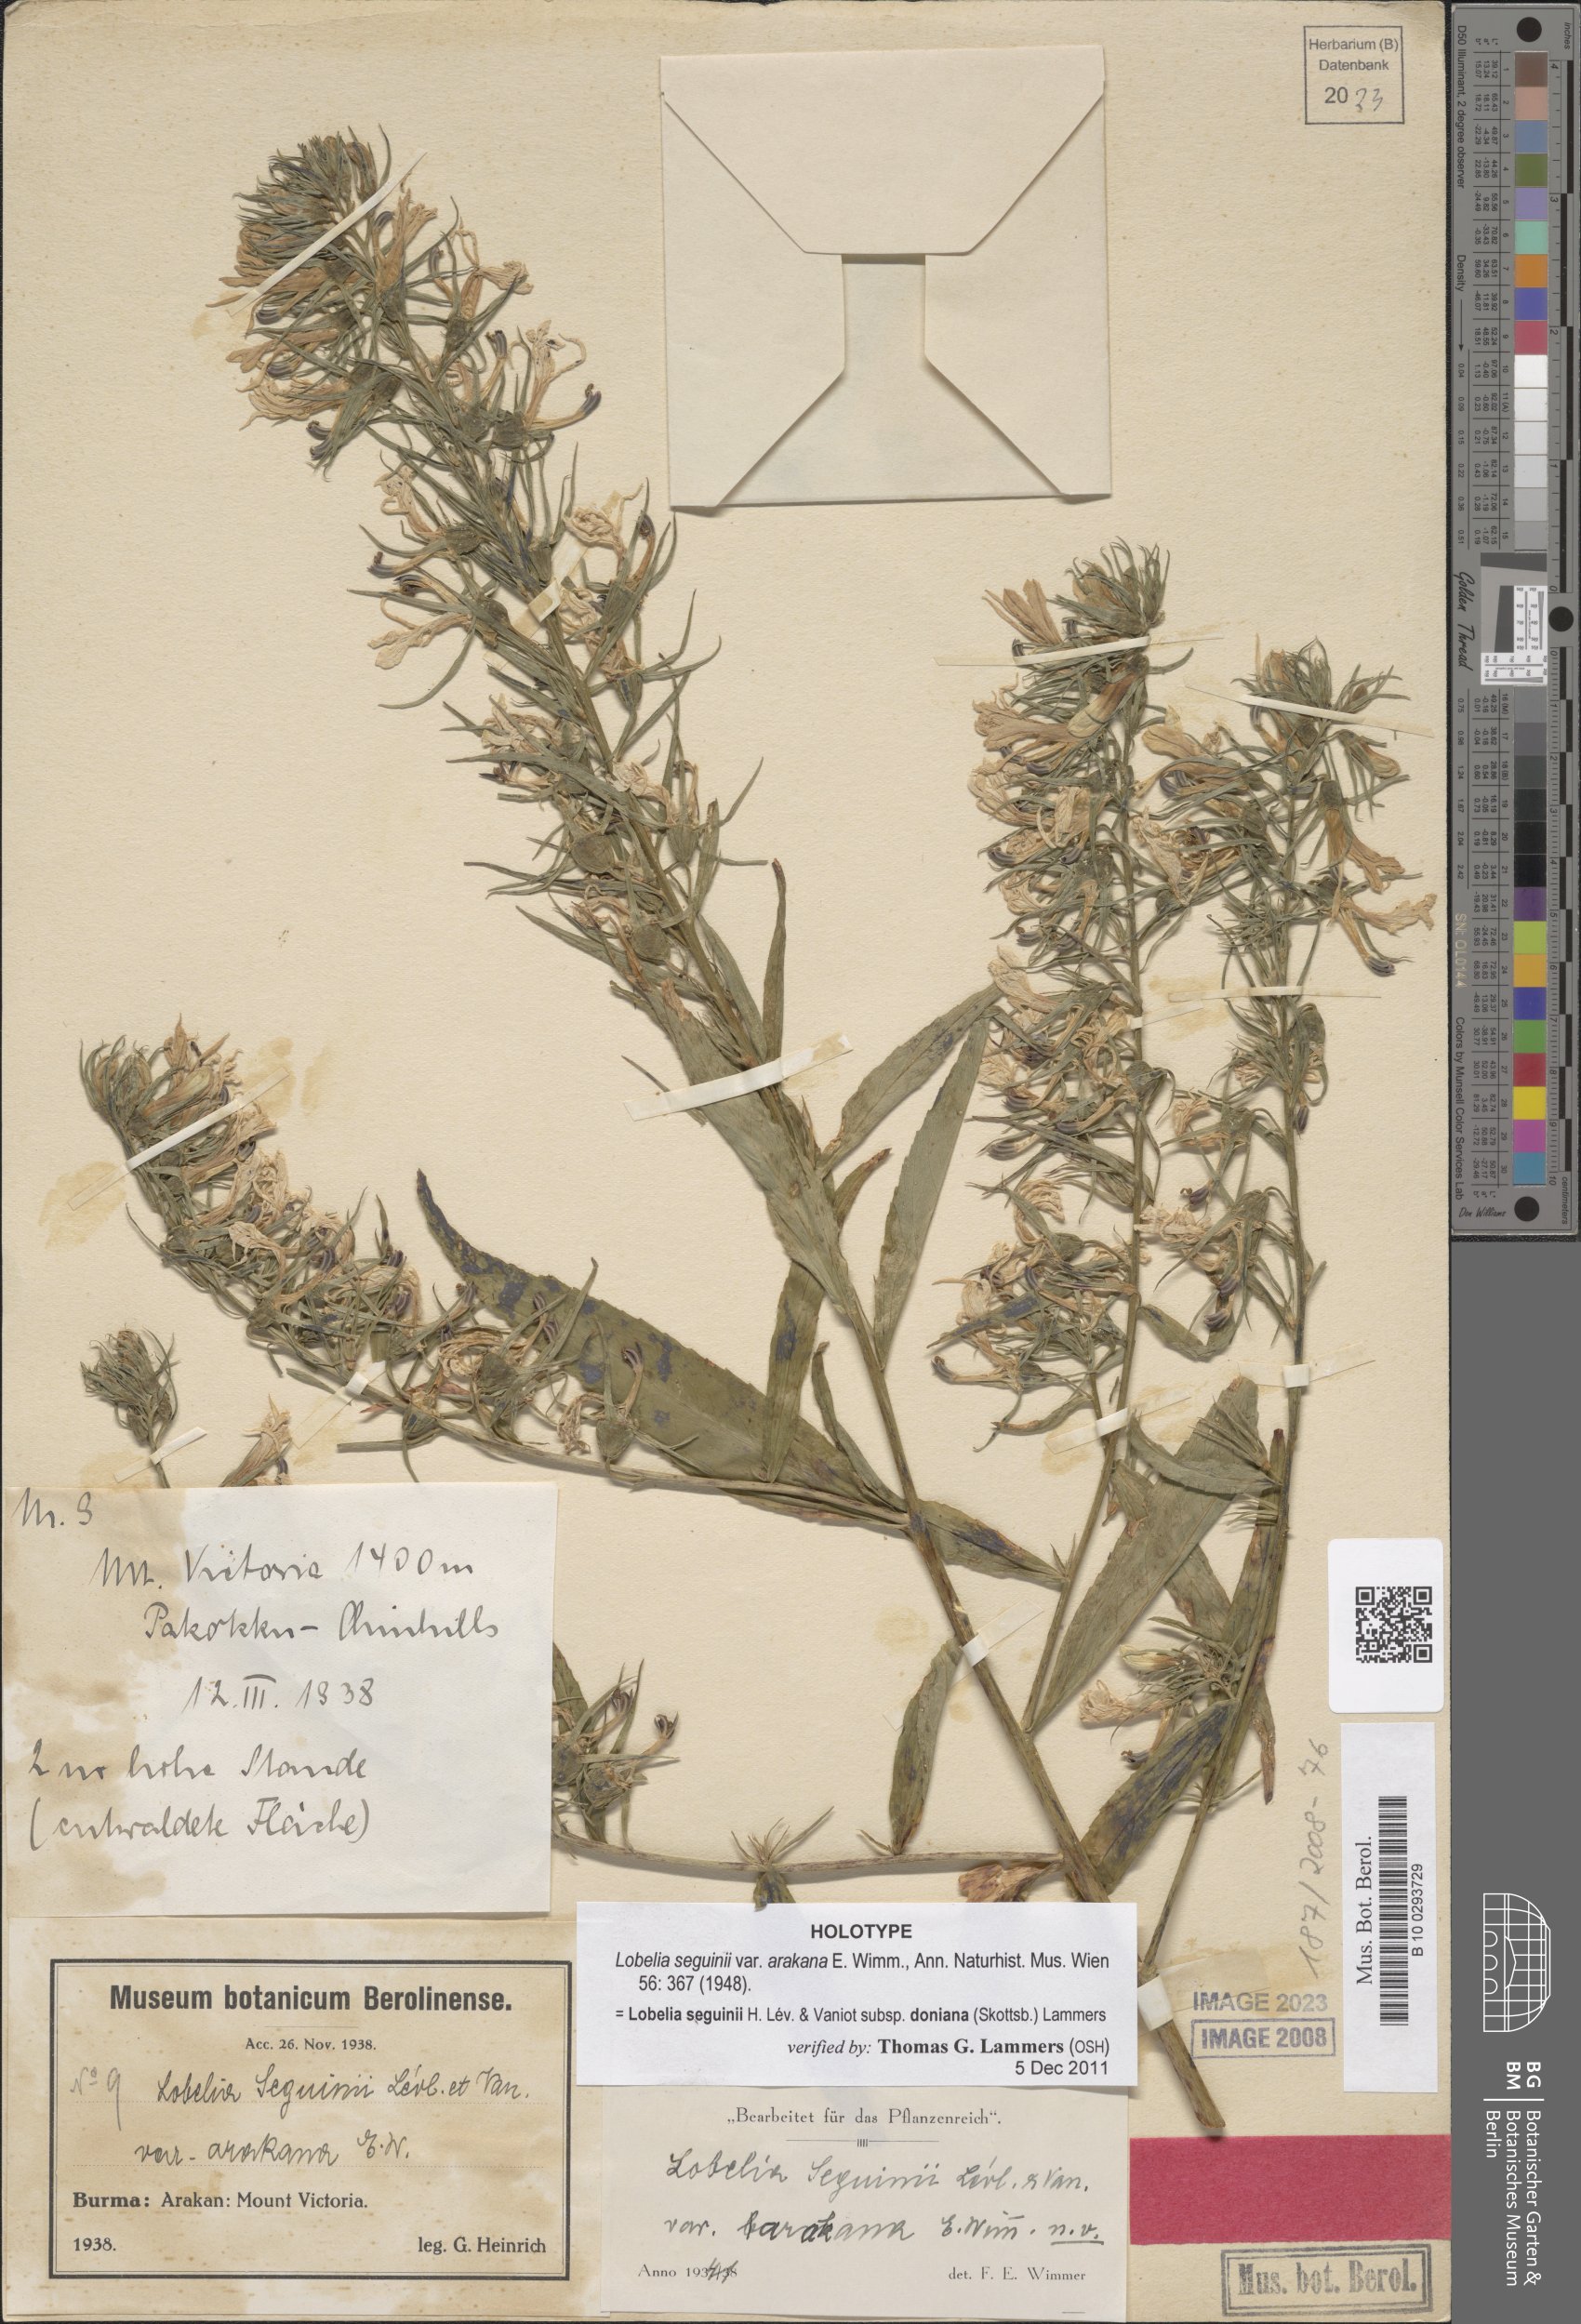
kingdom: Plantae
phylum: Tracheophyta
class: Magnoliopsida
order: Asterales
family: Campanulaceae
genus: Lobelia
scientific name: Lobelia nicotianifolia
